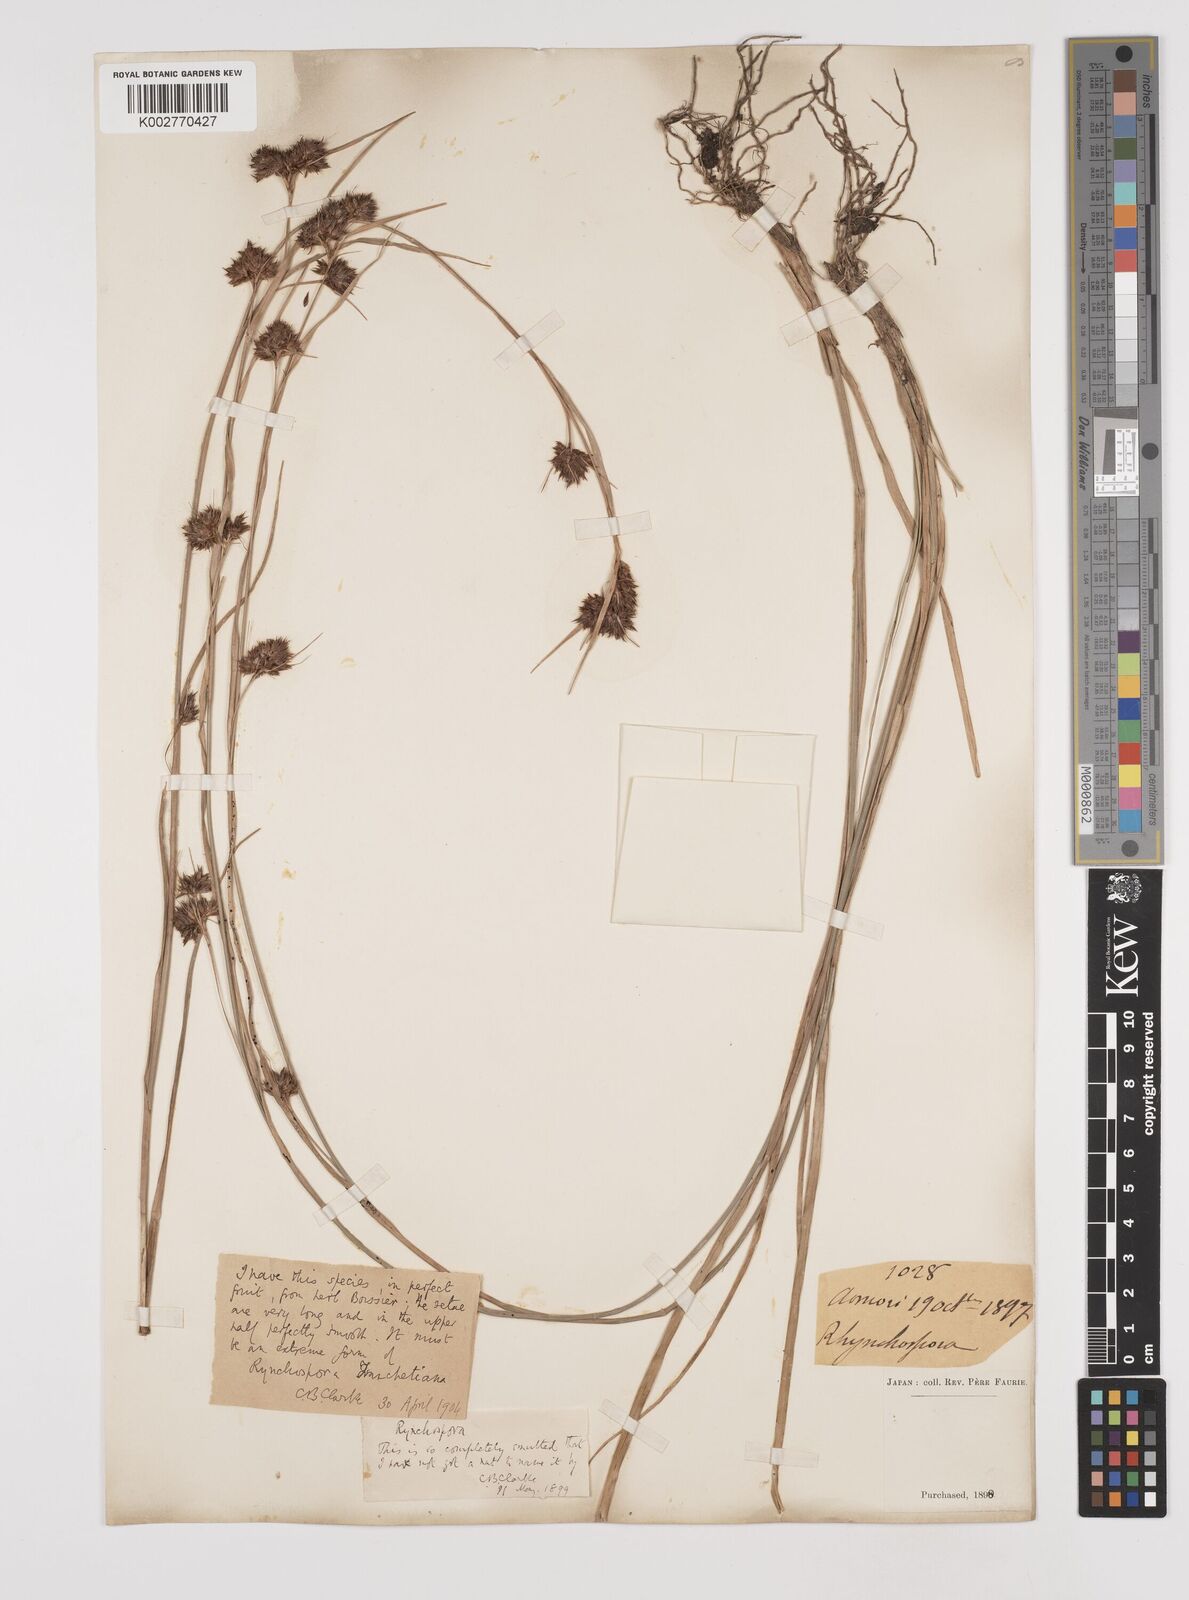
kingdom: Plantae
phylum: Tracheophyta
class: Liliopsida
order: Poales
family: Cyperaceae
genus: Rhynchospora
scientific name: Rhynchospora fujiiana
